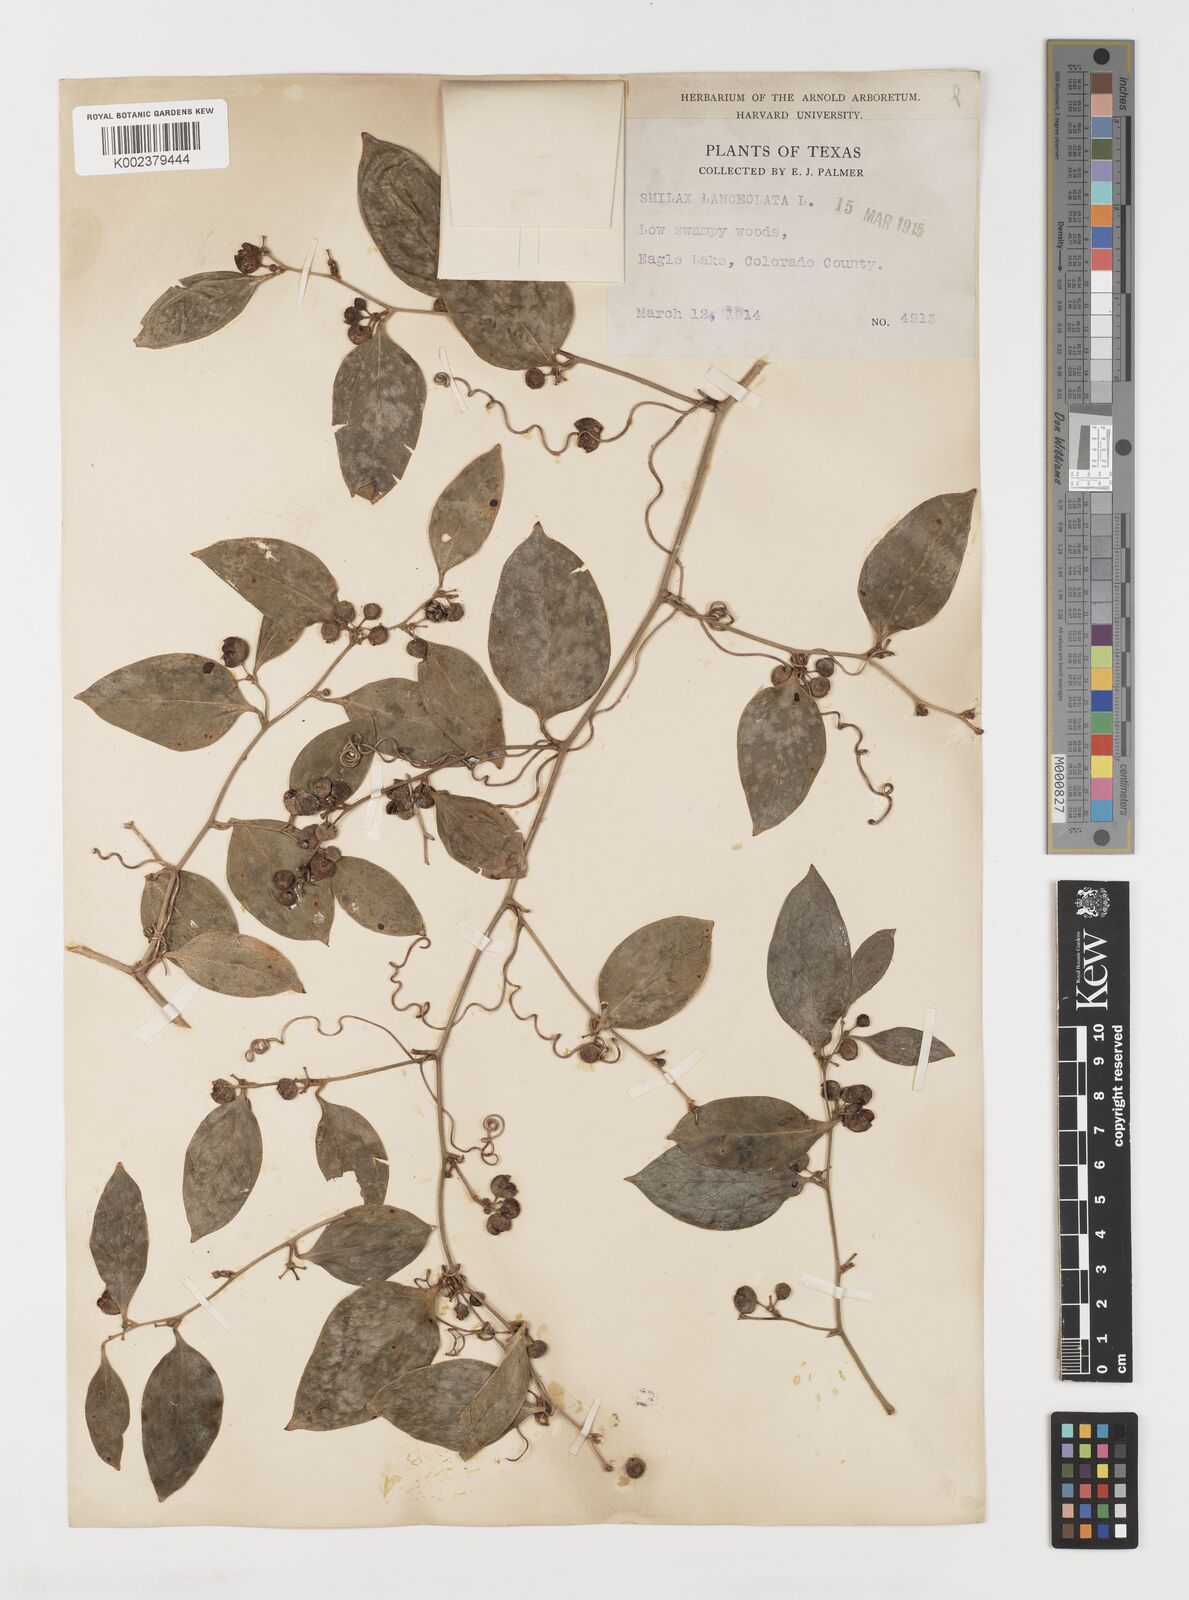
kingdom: Plantae
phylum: Tracheophyta
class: Liliopsida
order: Liliales
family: Smilacaceae
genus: Smilax
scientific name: Smilax laurifolia
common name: Bamboovine
